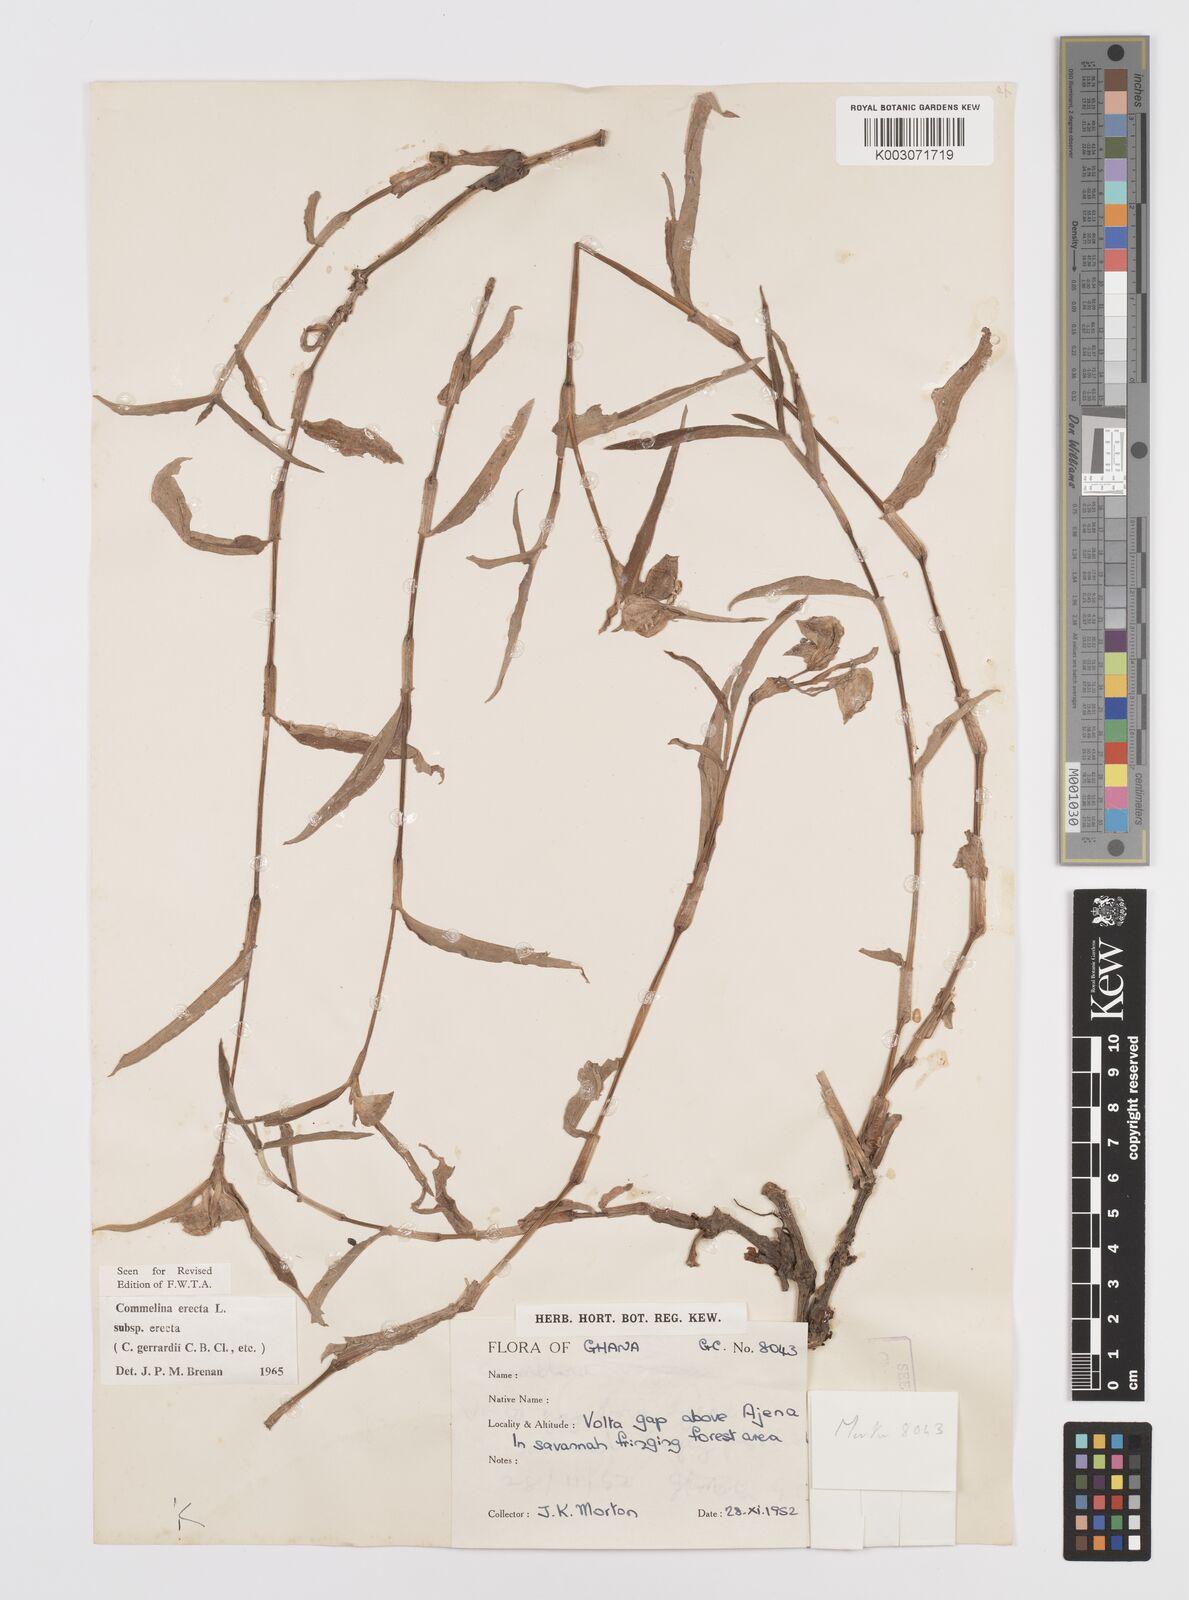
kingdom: Plantae
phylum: Tracheophyta
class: Liliopsida
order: Commelinales
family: Commelinaceae
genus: Commelina
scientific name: Commelina erecta
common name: Blousel blommetjie
